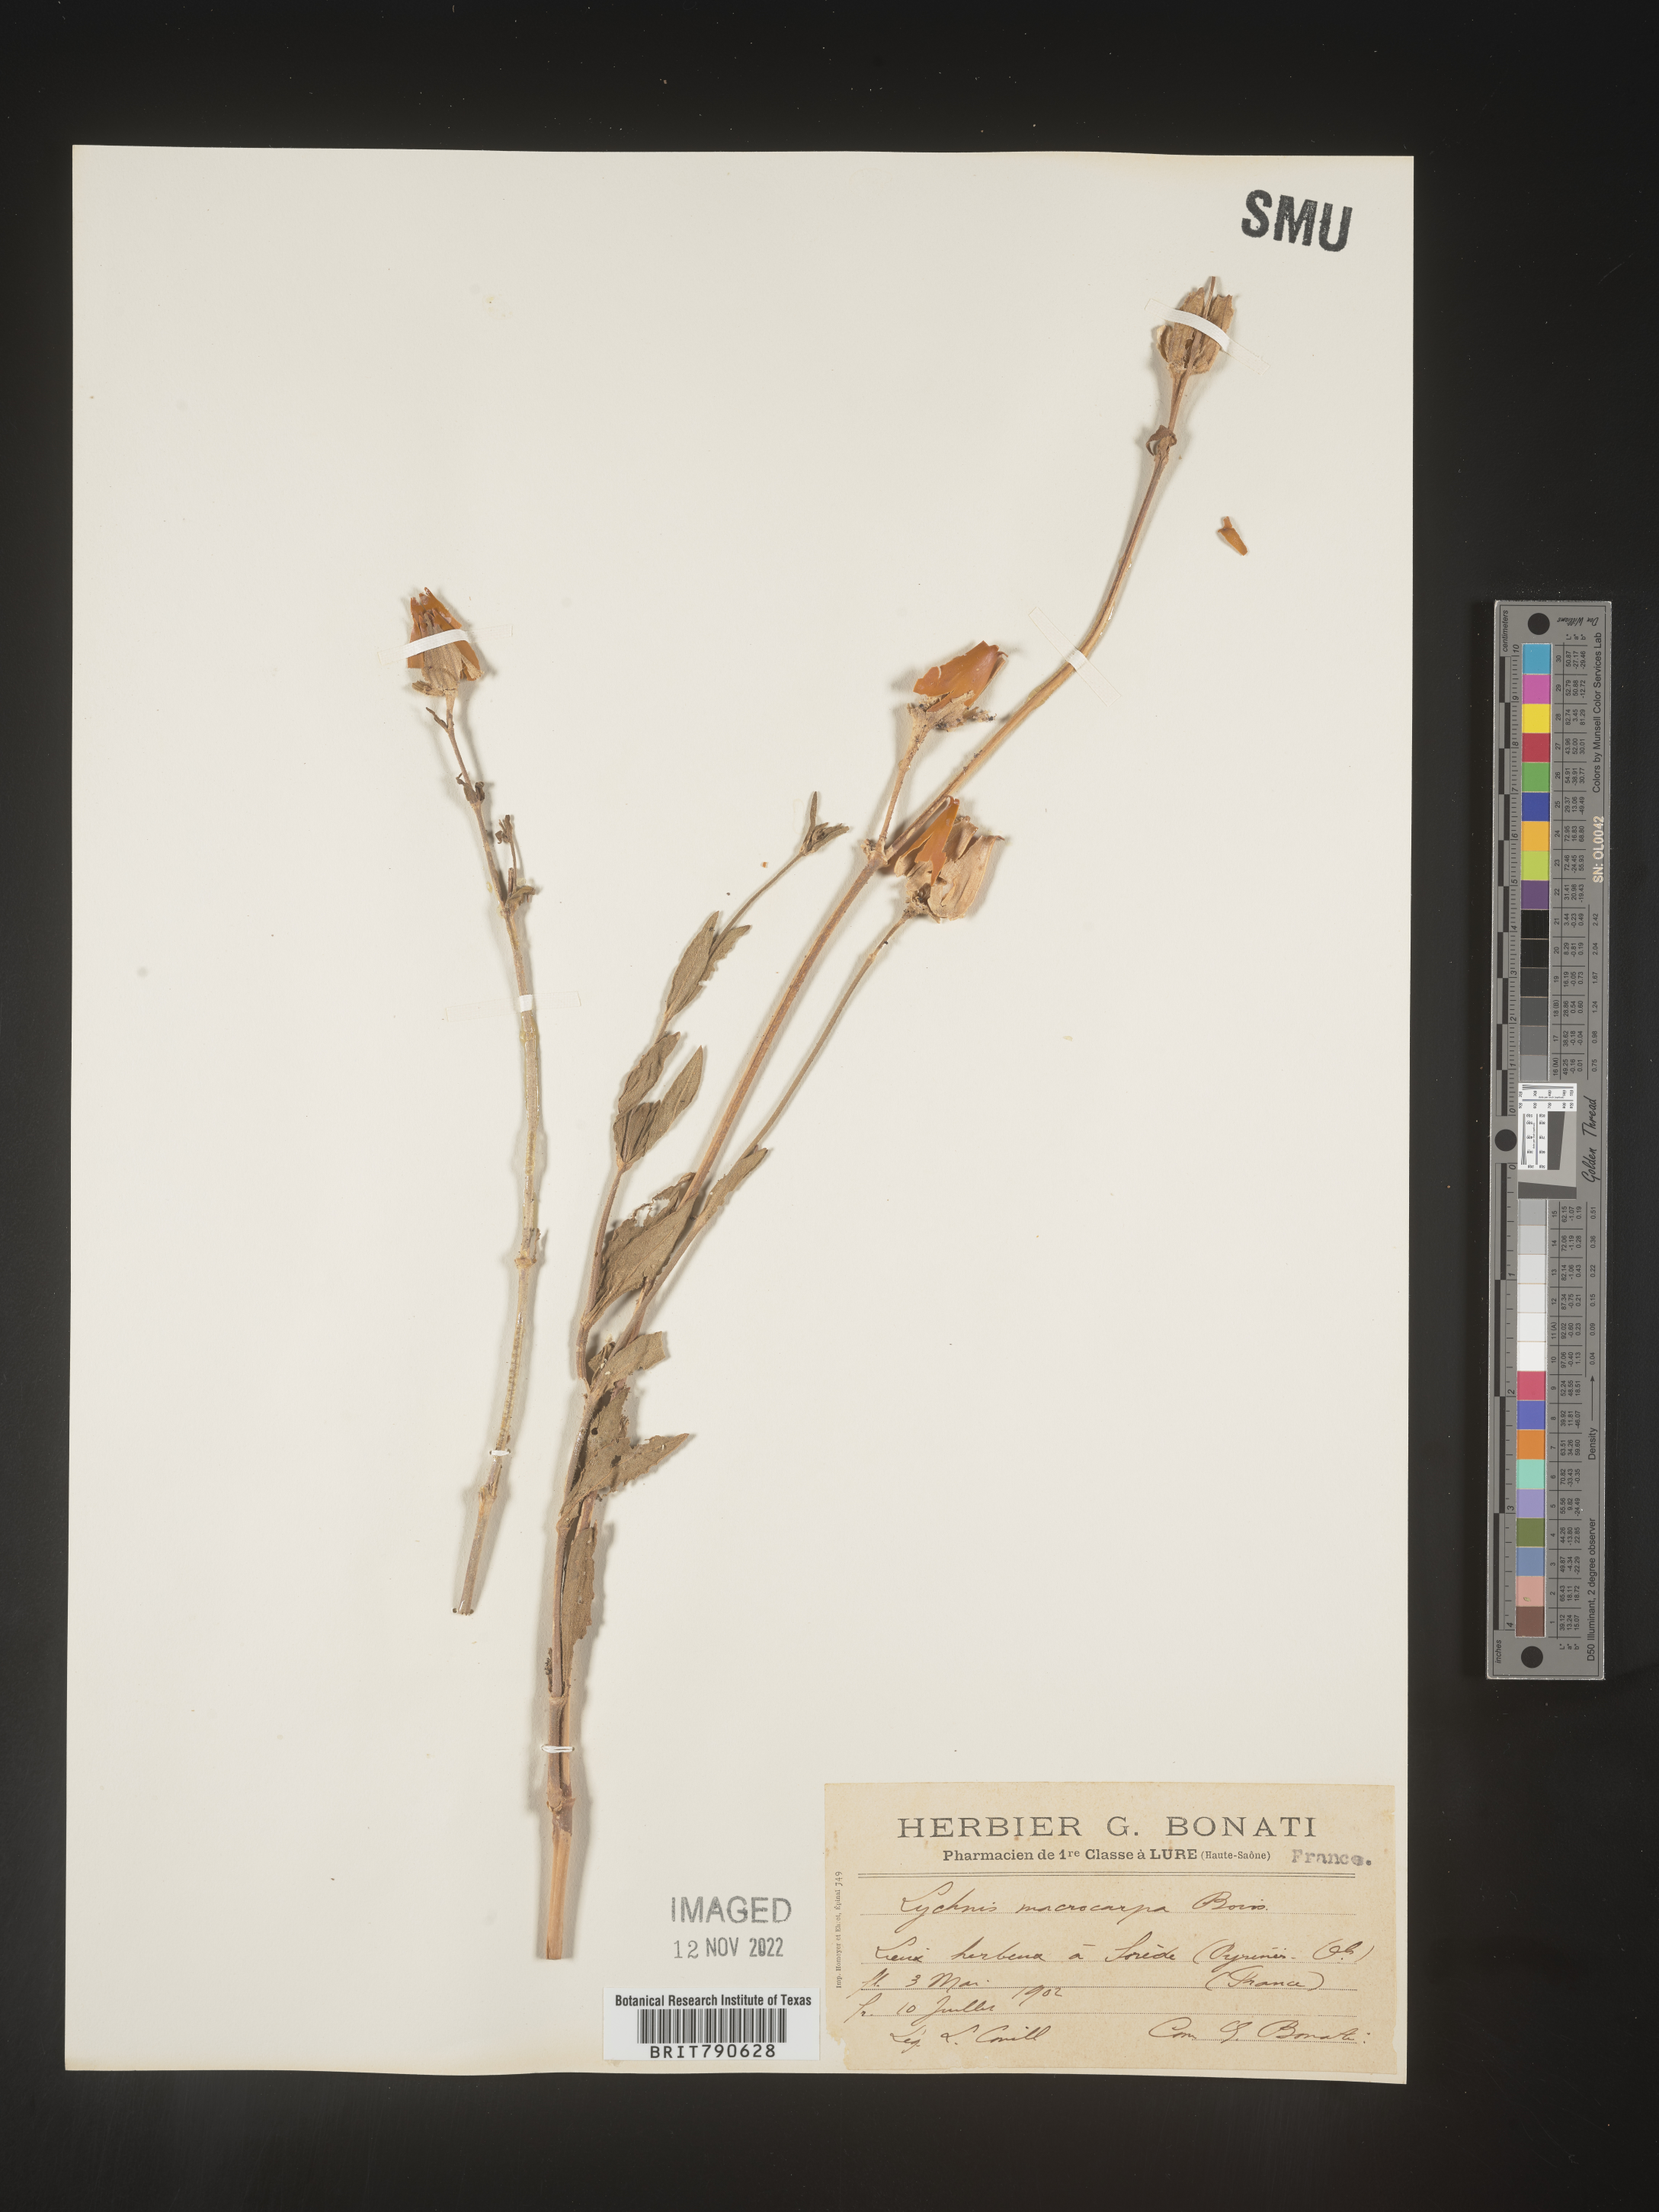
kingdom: Plantae
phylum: Tracheophyta
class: Magnoliopsida
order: Caryophyllales
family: Caryophyllaceae
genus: Silene
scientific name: Silene
